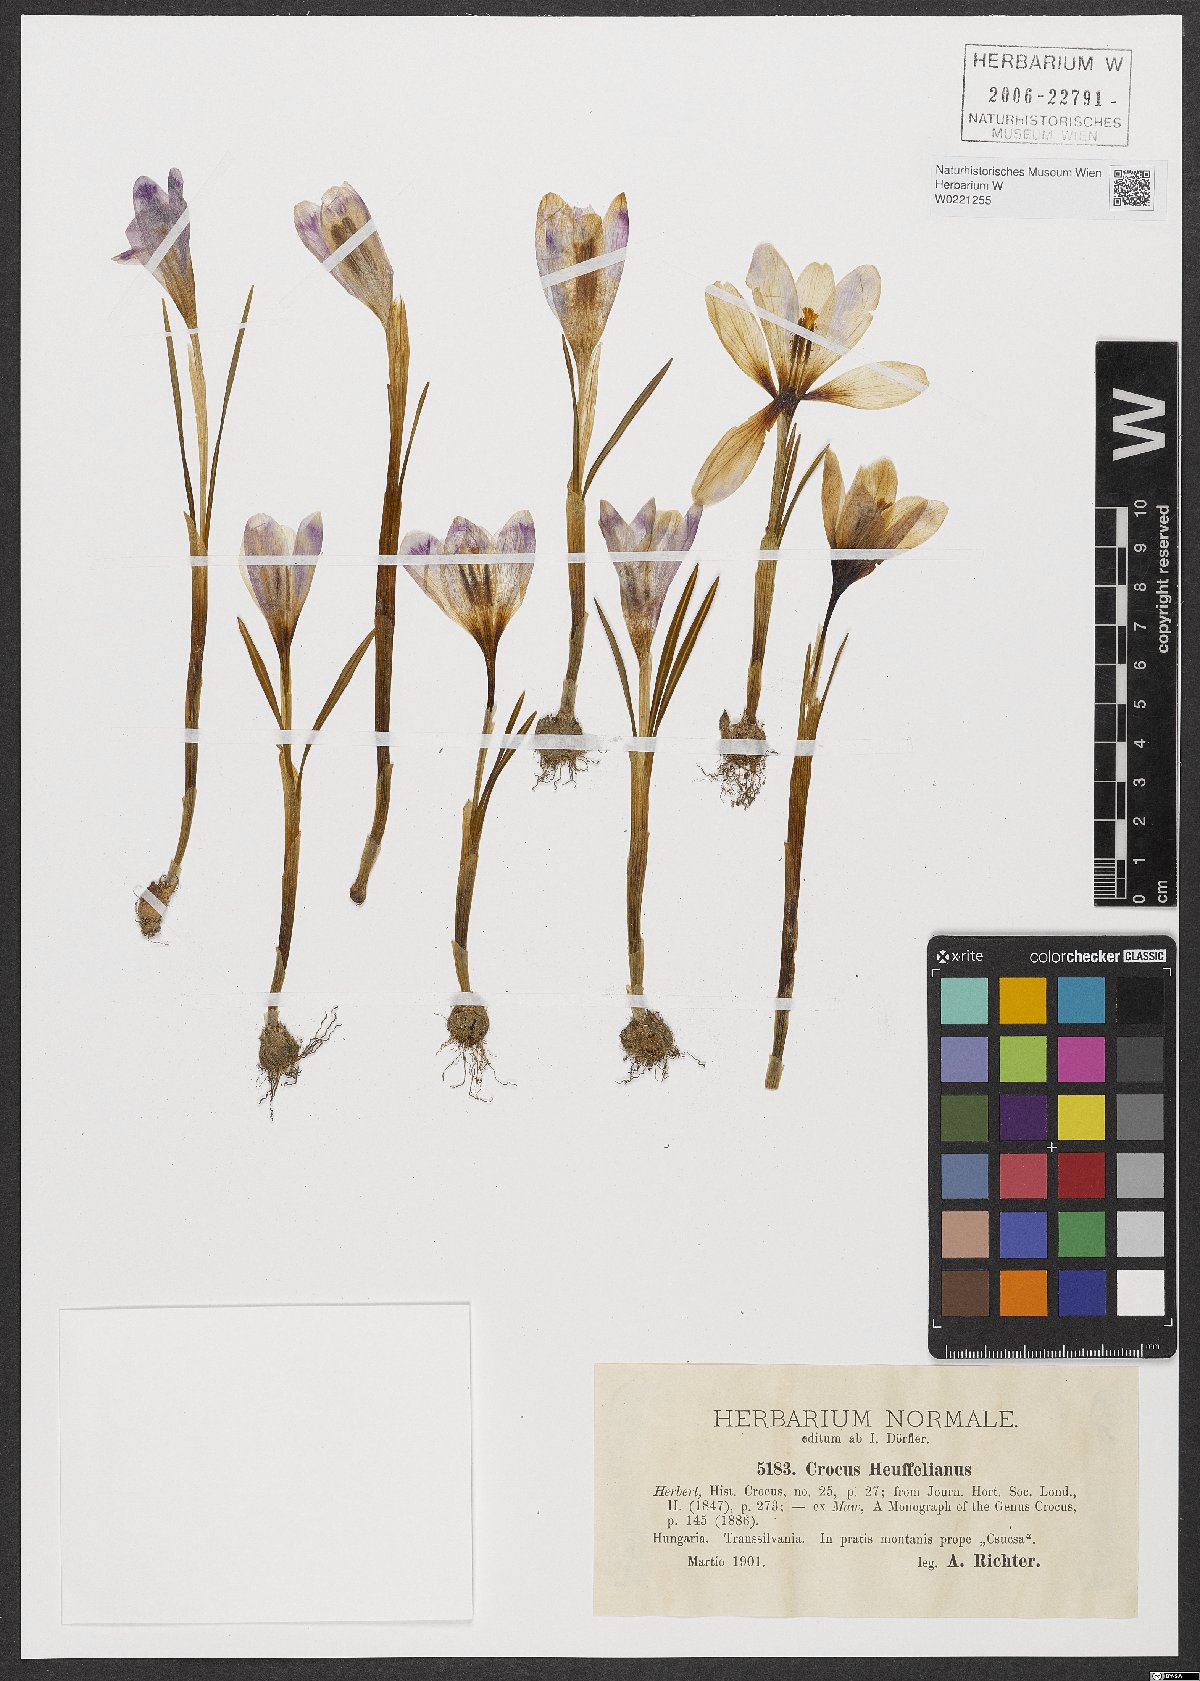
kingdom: Plantae
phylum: Tracheophyta
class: Liliopsida
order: Asparagales
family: Iridaceae
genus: Crocus
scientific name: Crocus heuffelianus
